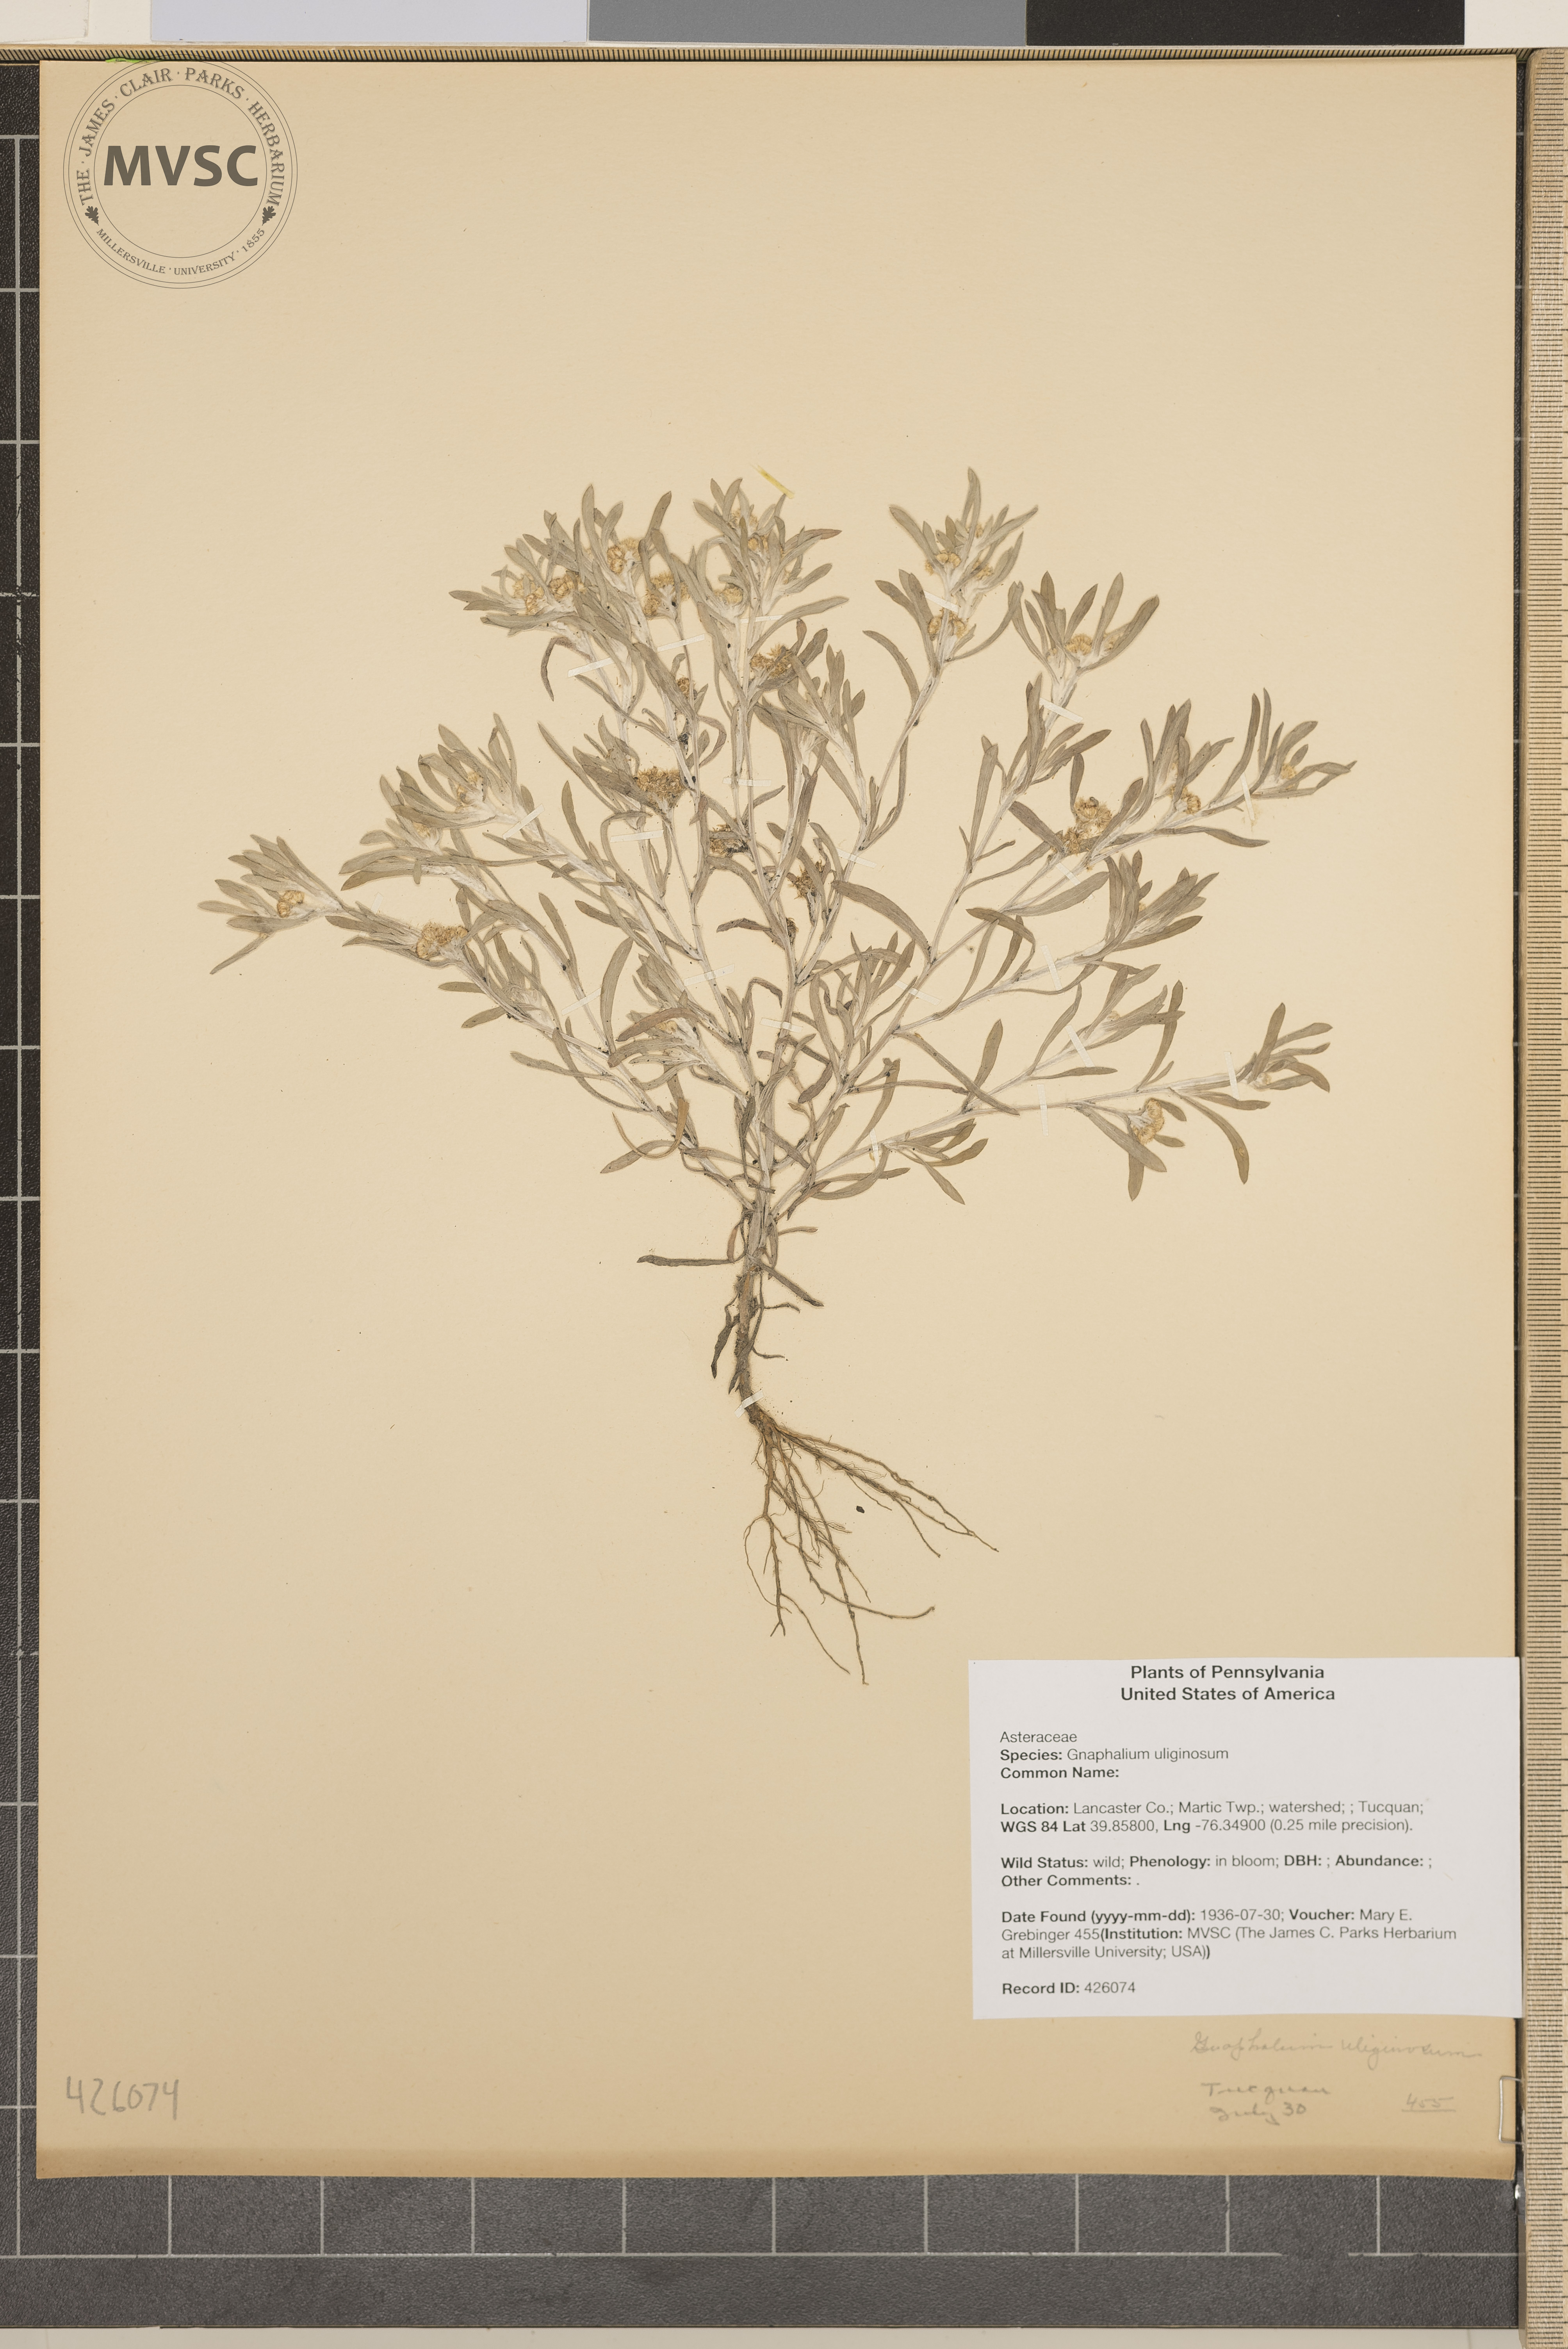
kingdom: Plantae
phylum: Tracheophyta
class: Magnoliopsida
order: Asterales
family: Asteraceae
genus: Gnaphalium
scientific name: Gnaphalium uliginosum
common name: Marsh cudweed
